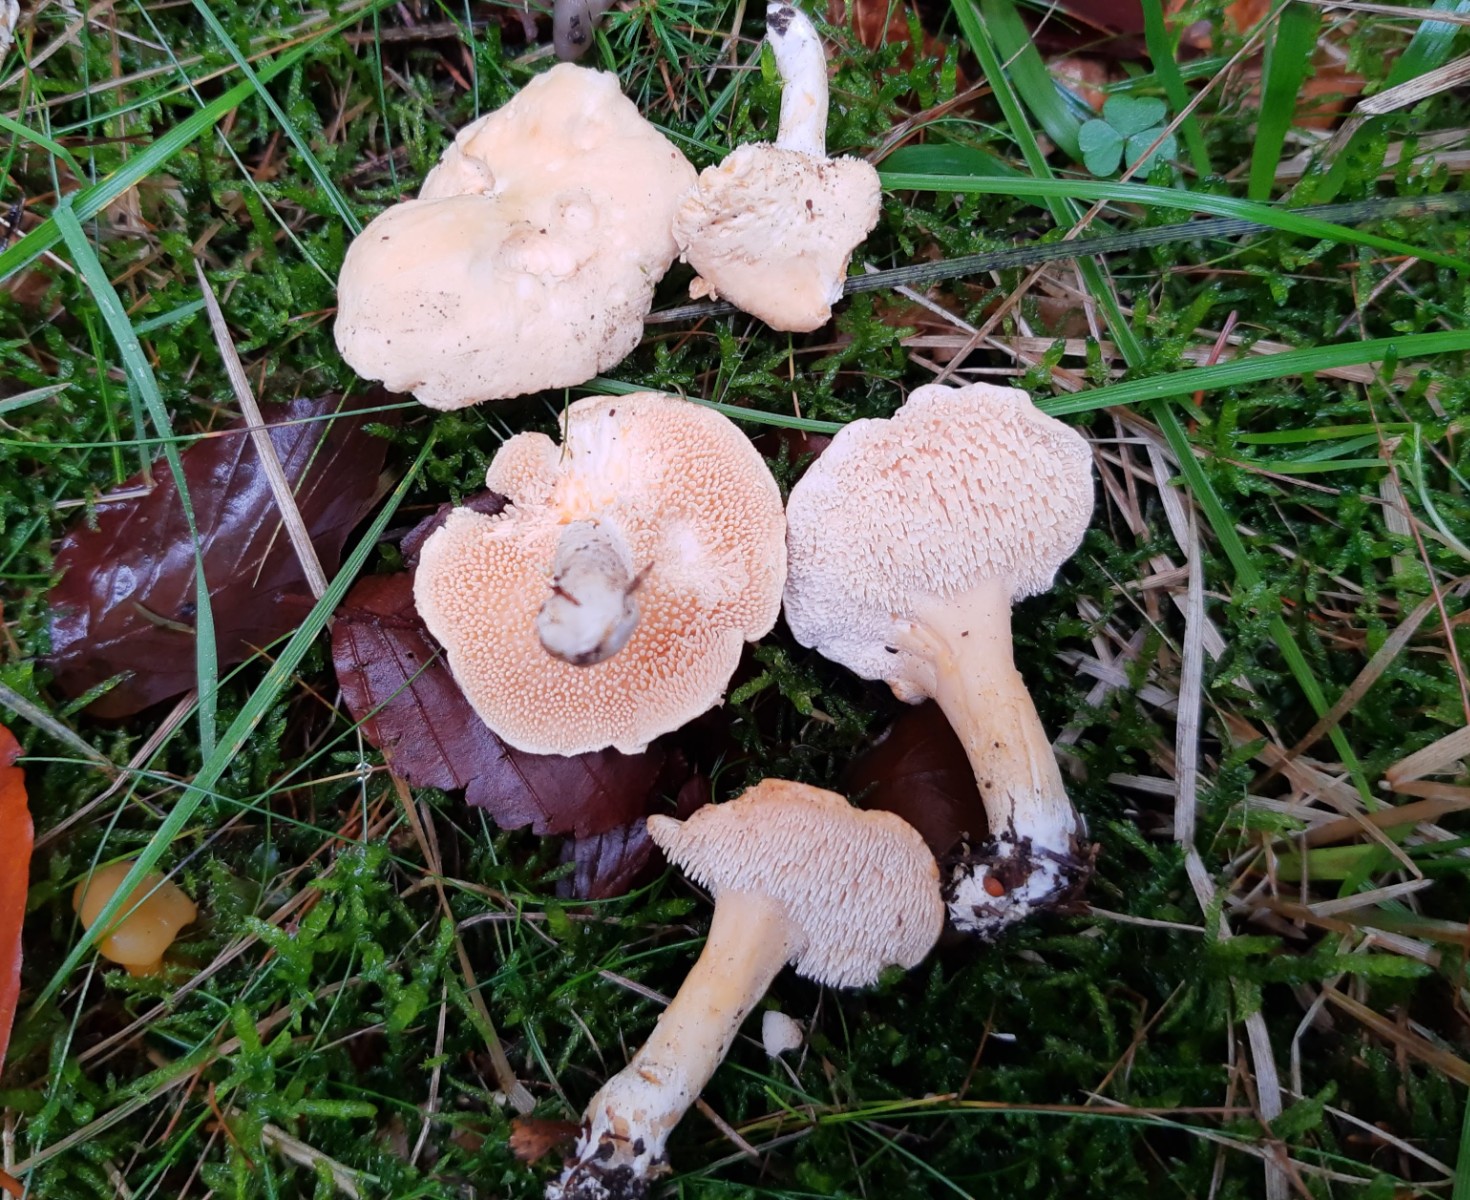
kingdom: Fungi
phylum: Basidiomycota
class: Agaricomycetes
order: Cantharellales
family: Hydnaceae
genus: Hydnum
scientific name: Hydnum repandum
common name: almindelig pigsvamp
